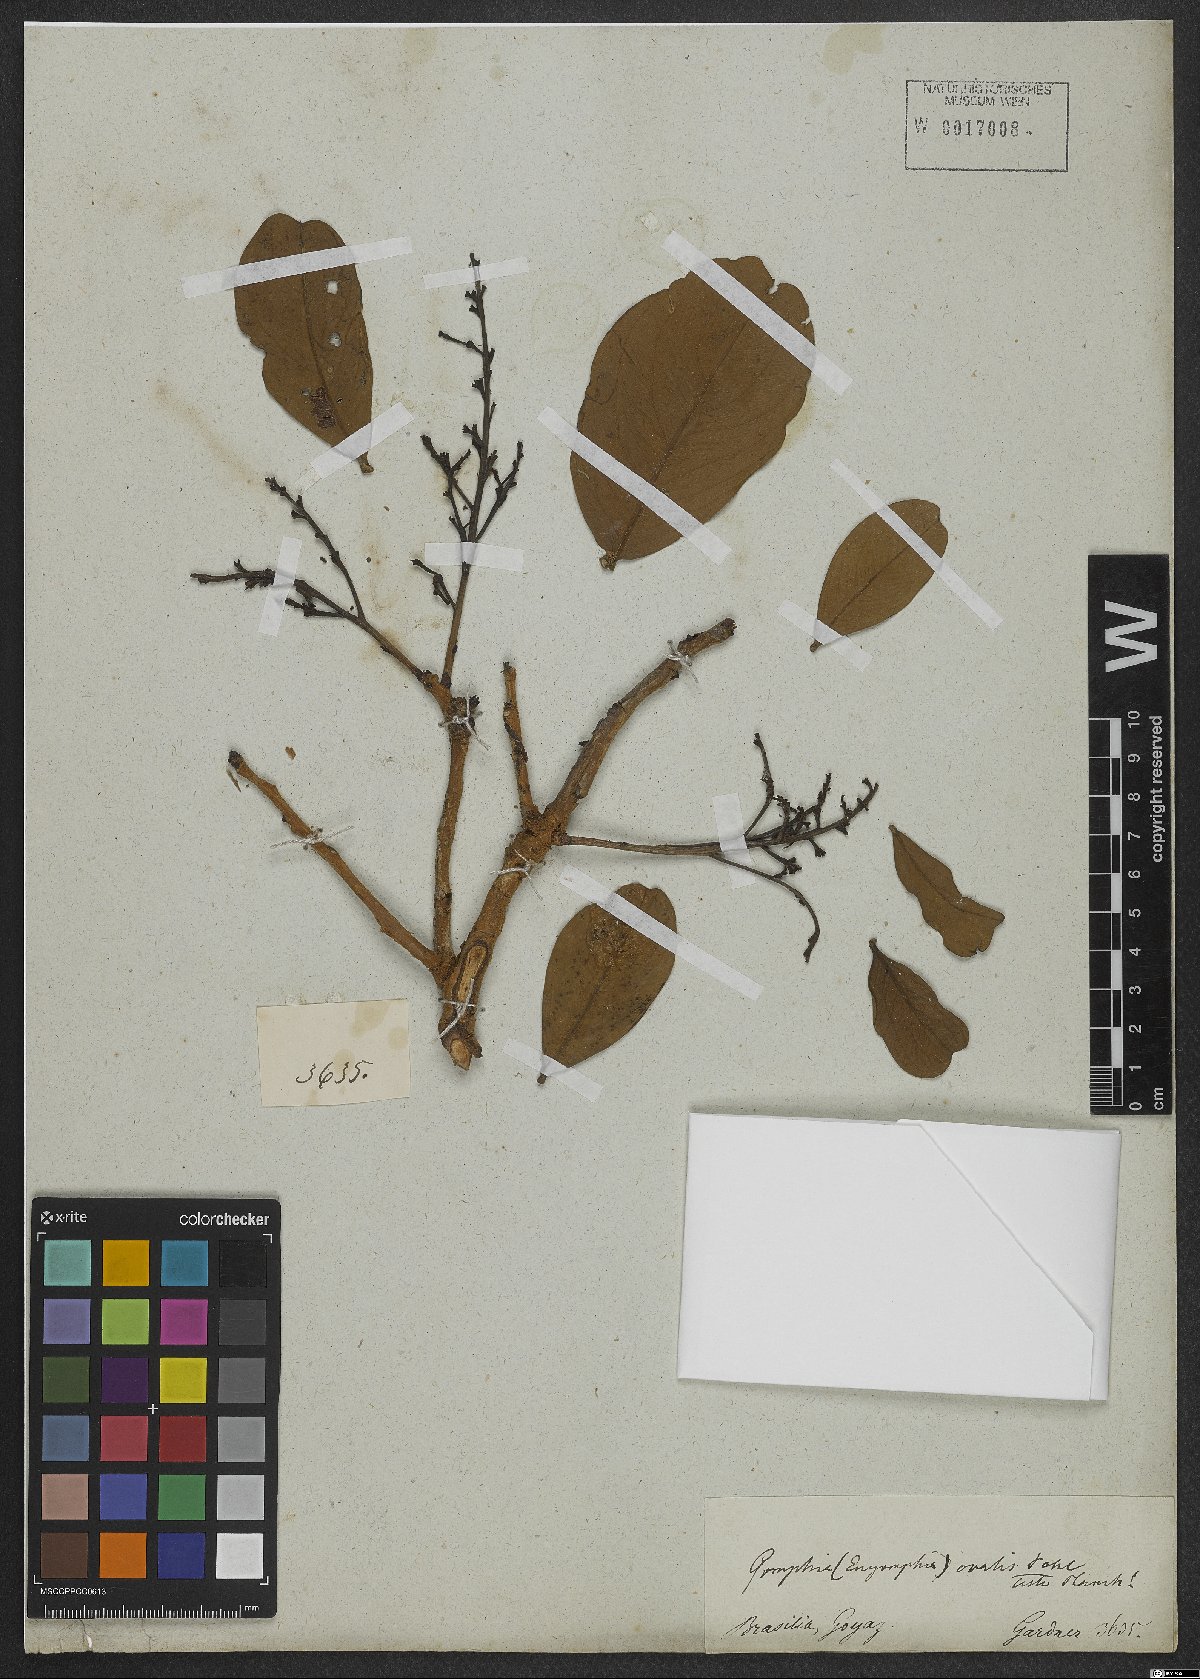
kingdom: Plantae
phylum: Tracheophyta
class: Magnoliopsida
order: Malpighiales
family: Ochnaceae
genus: Ouratea
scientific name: Ouratea ovalis
